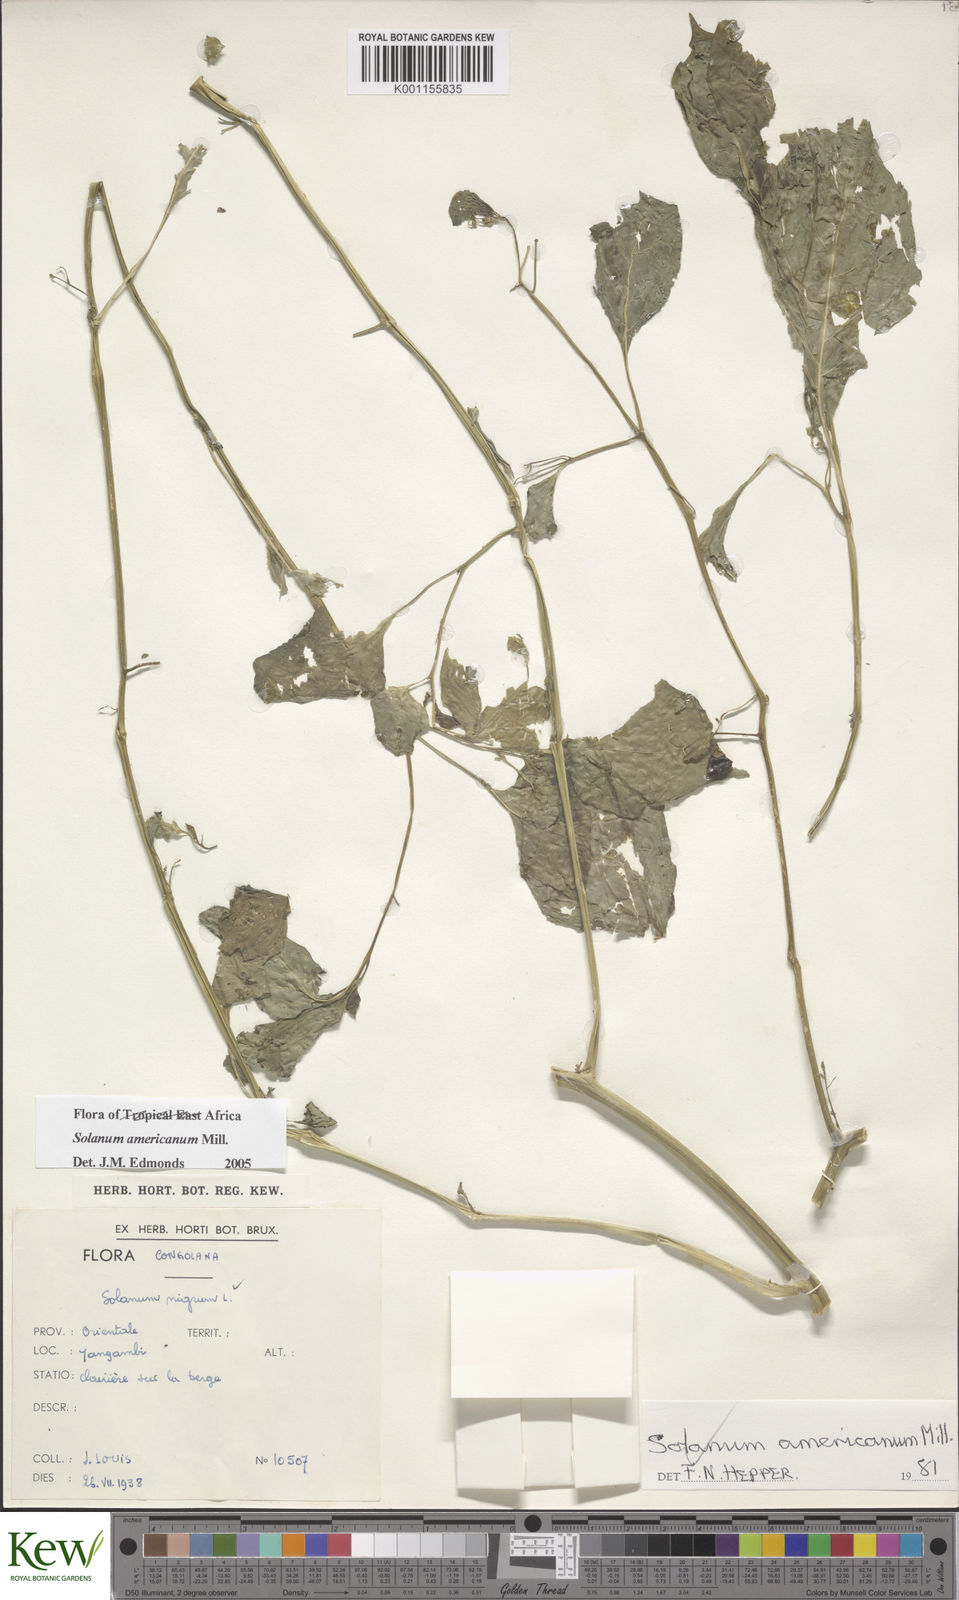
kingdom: Plantae
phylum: Tracheophyta
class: Magnoliopsida
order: Solanales
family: Solanaceae
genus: Solanum
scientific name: Solanum scabrum
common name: Garden-huckleberry
